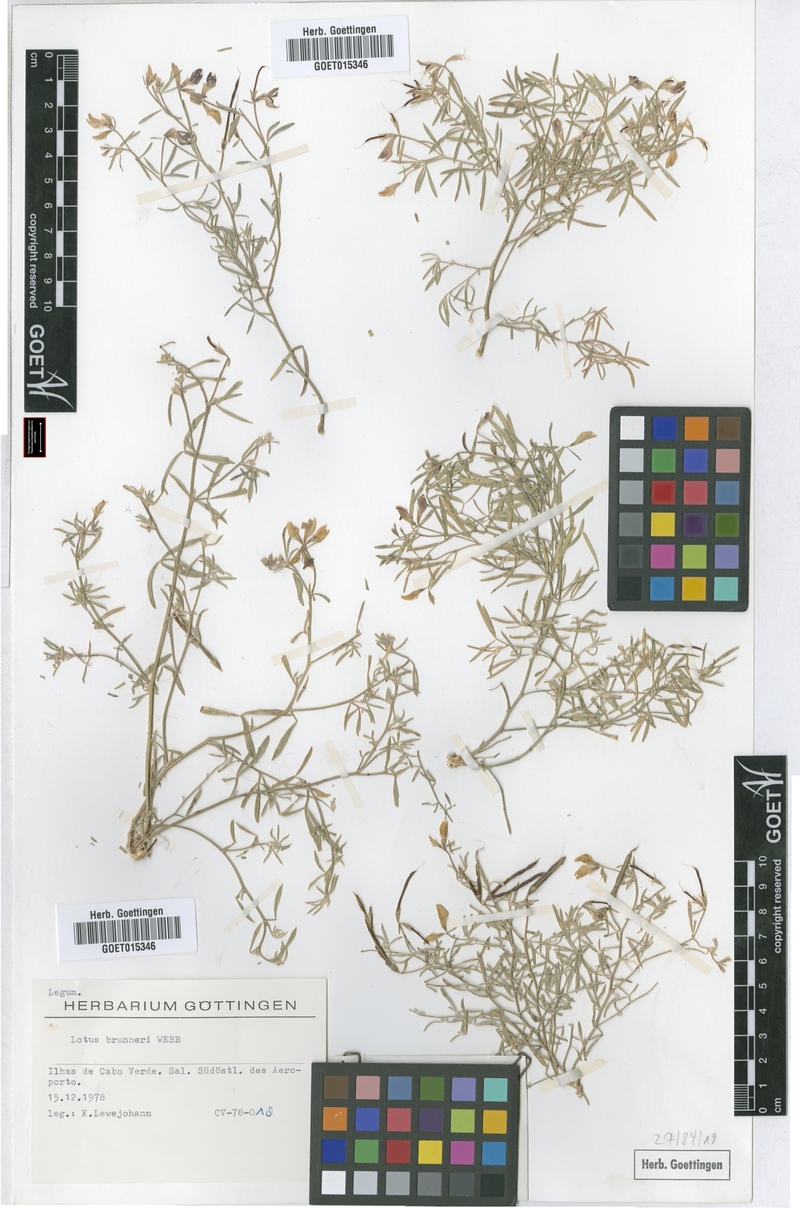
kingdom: Plantae
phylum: Tracheophyta
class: Magnoliopsida
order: Fabales
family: Fabaceae
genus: Lotus
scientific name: Lotus brunneri
